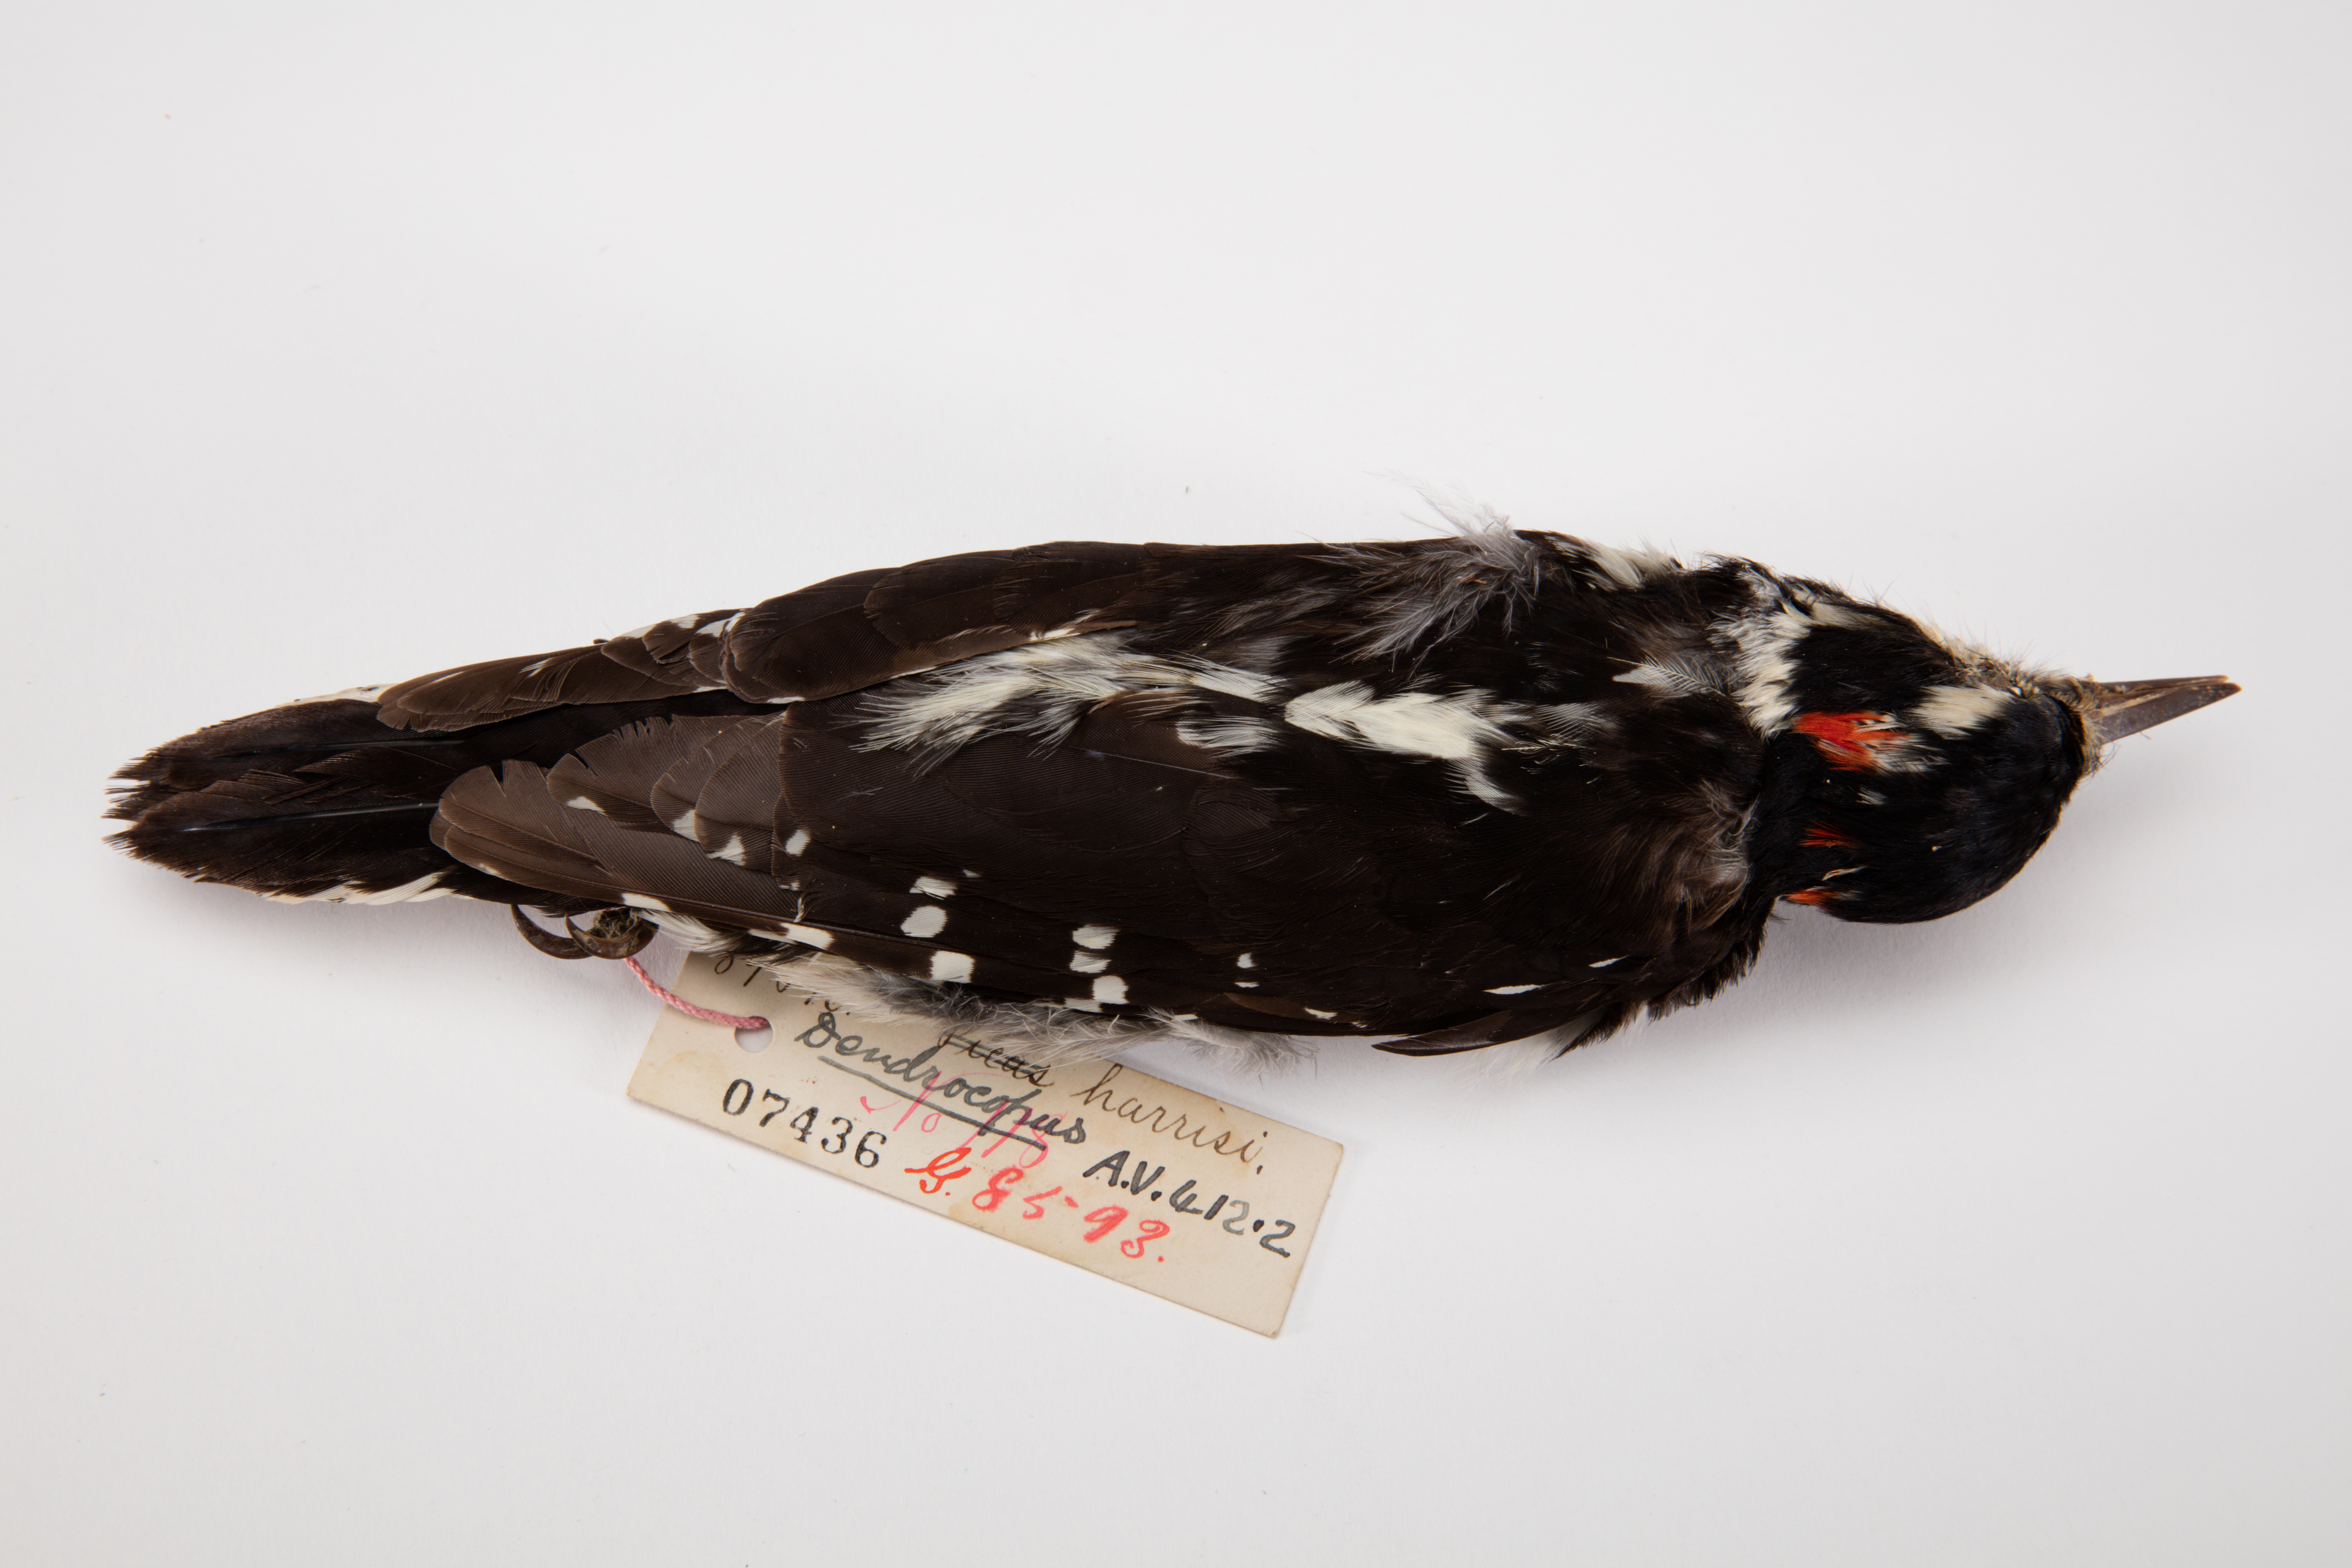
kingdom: Animalia
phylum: Chordata
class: Aves
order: Piciformes
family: Picidae
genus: Leuconotopicus
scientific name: Leuconotopicus villosus
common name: Hairy woodpecker
